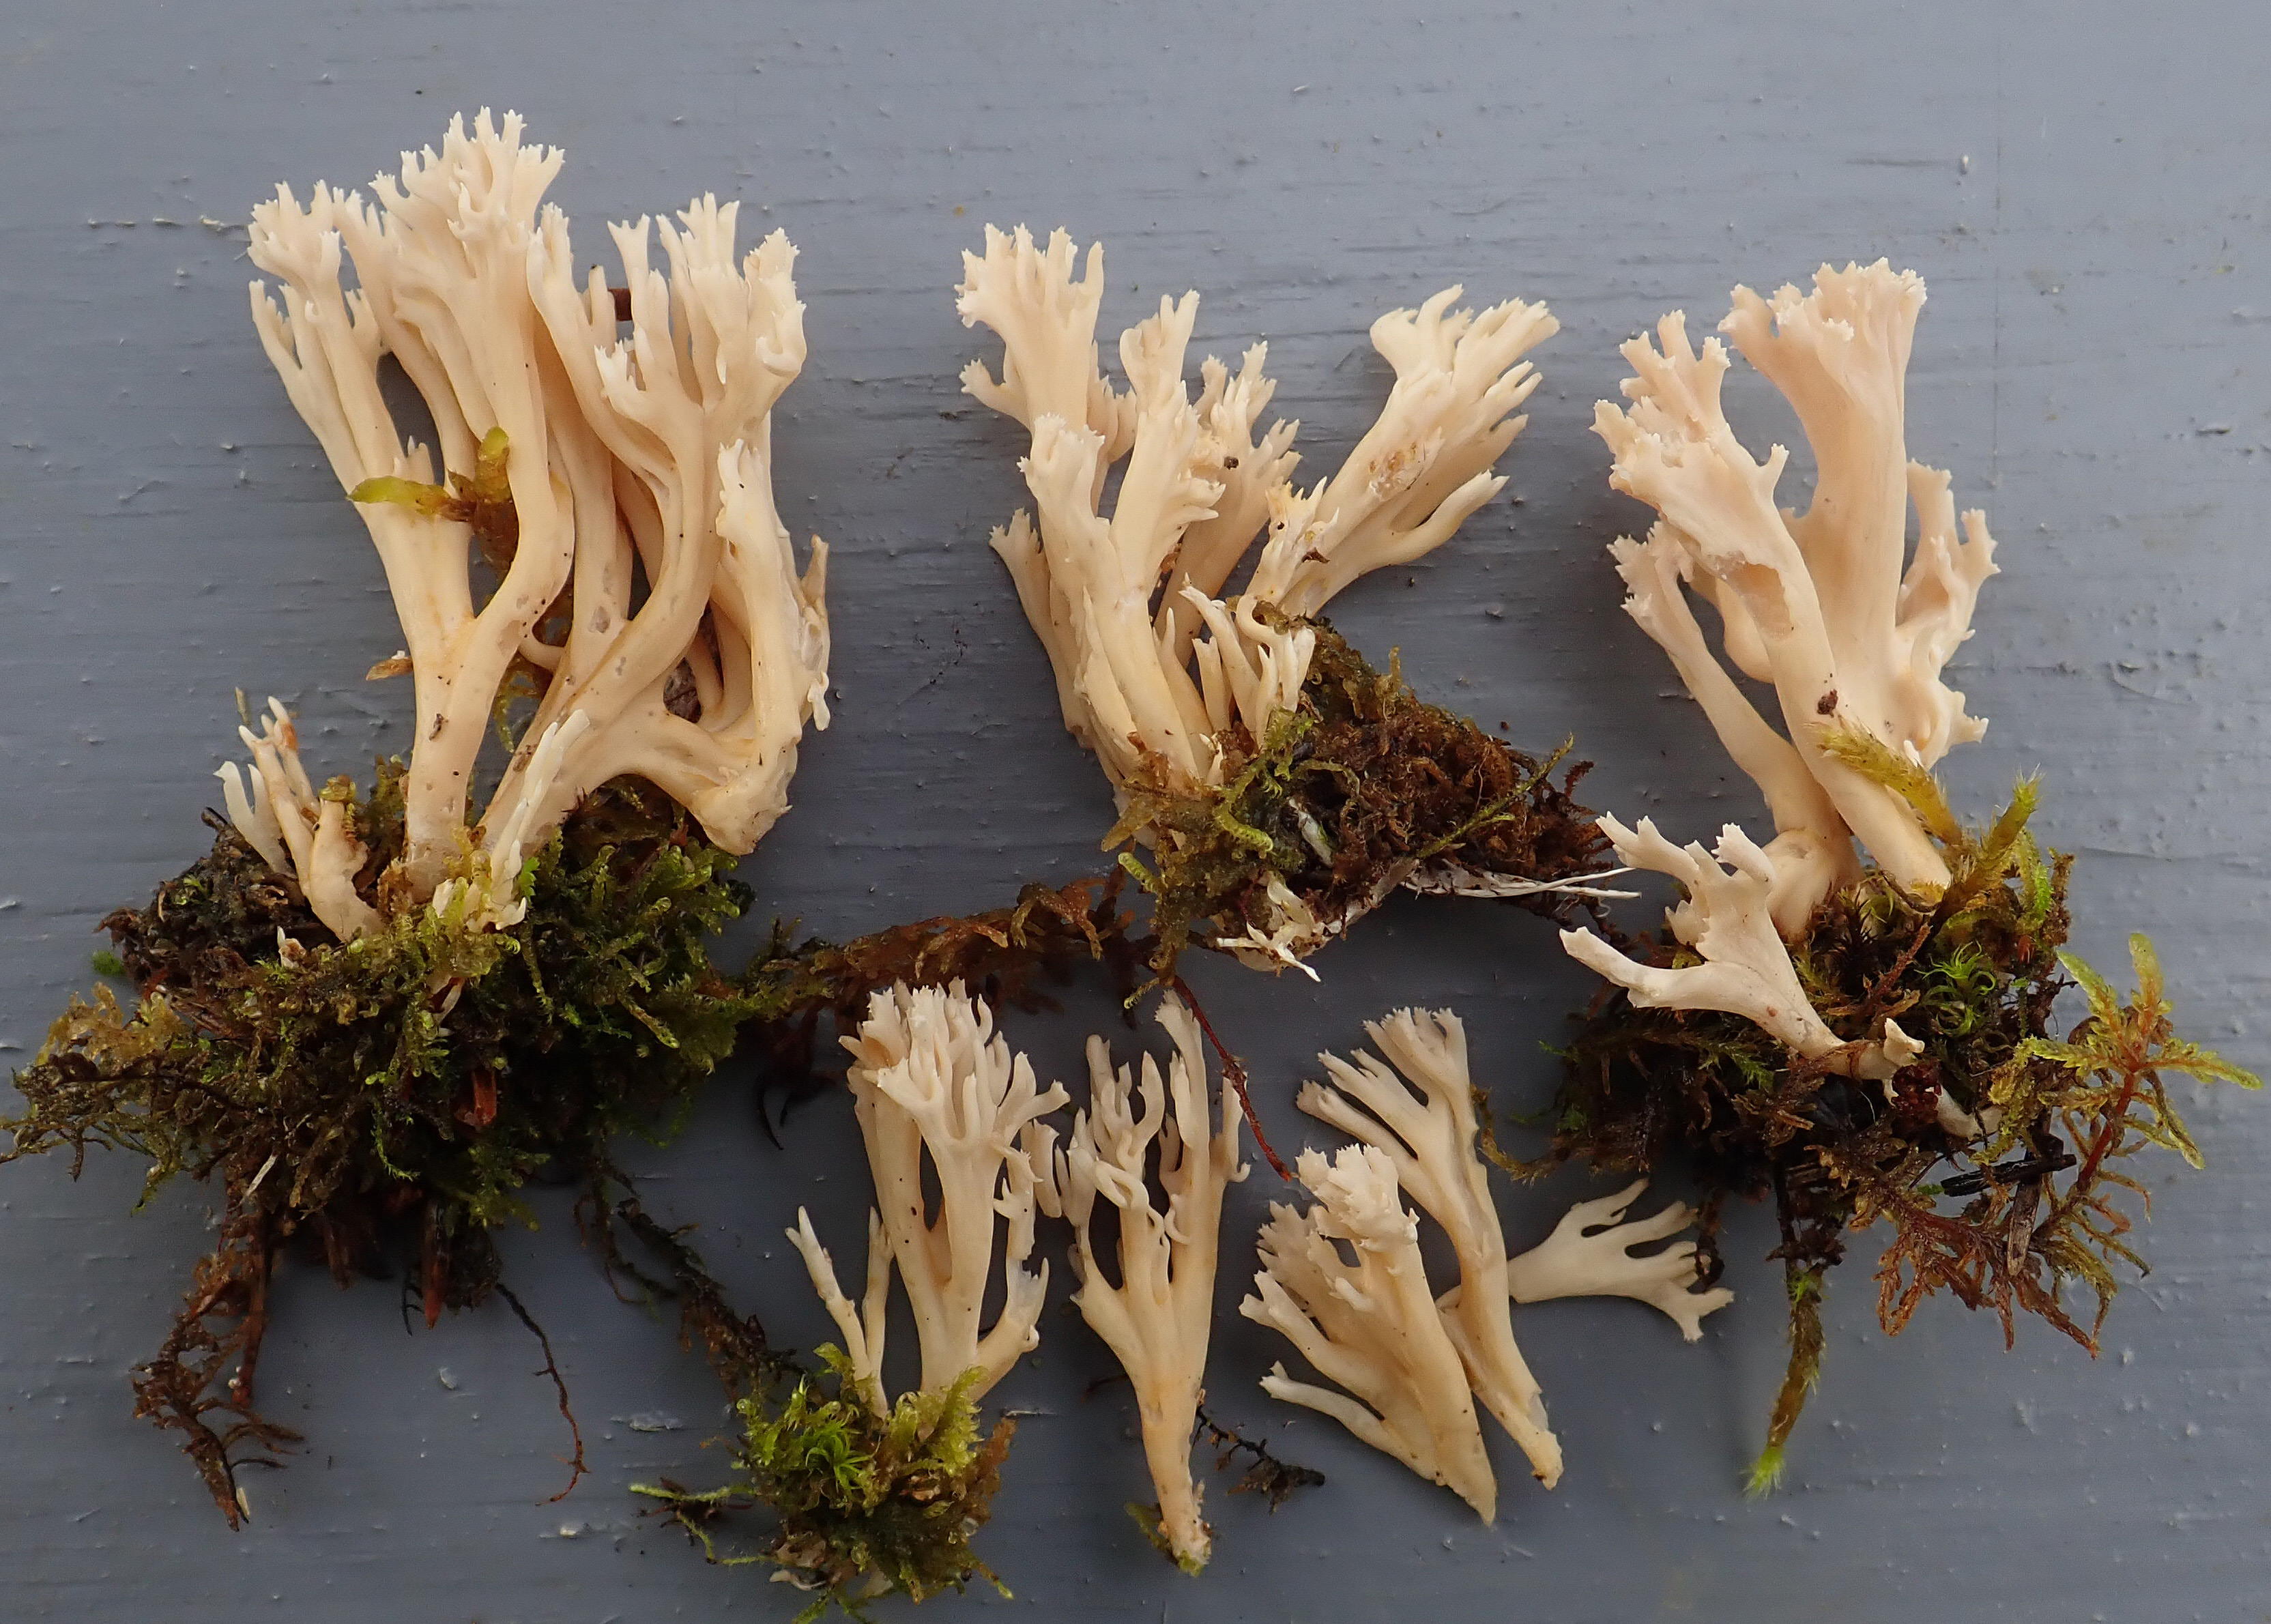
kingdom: Fungi
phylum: Basidiomycota
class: Agaricomycetes
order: Gomphales
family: Gomphaceae
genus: Ramaria
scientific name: Ramaria gracilis
